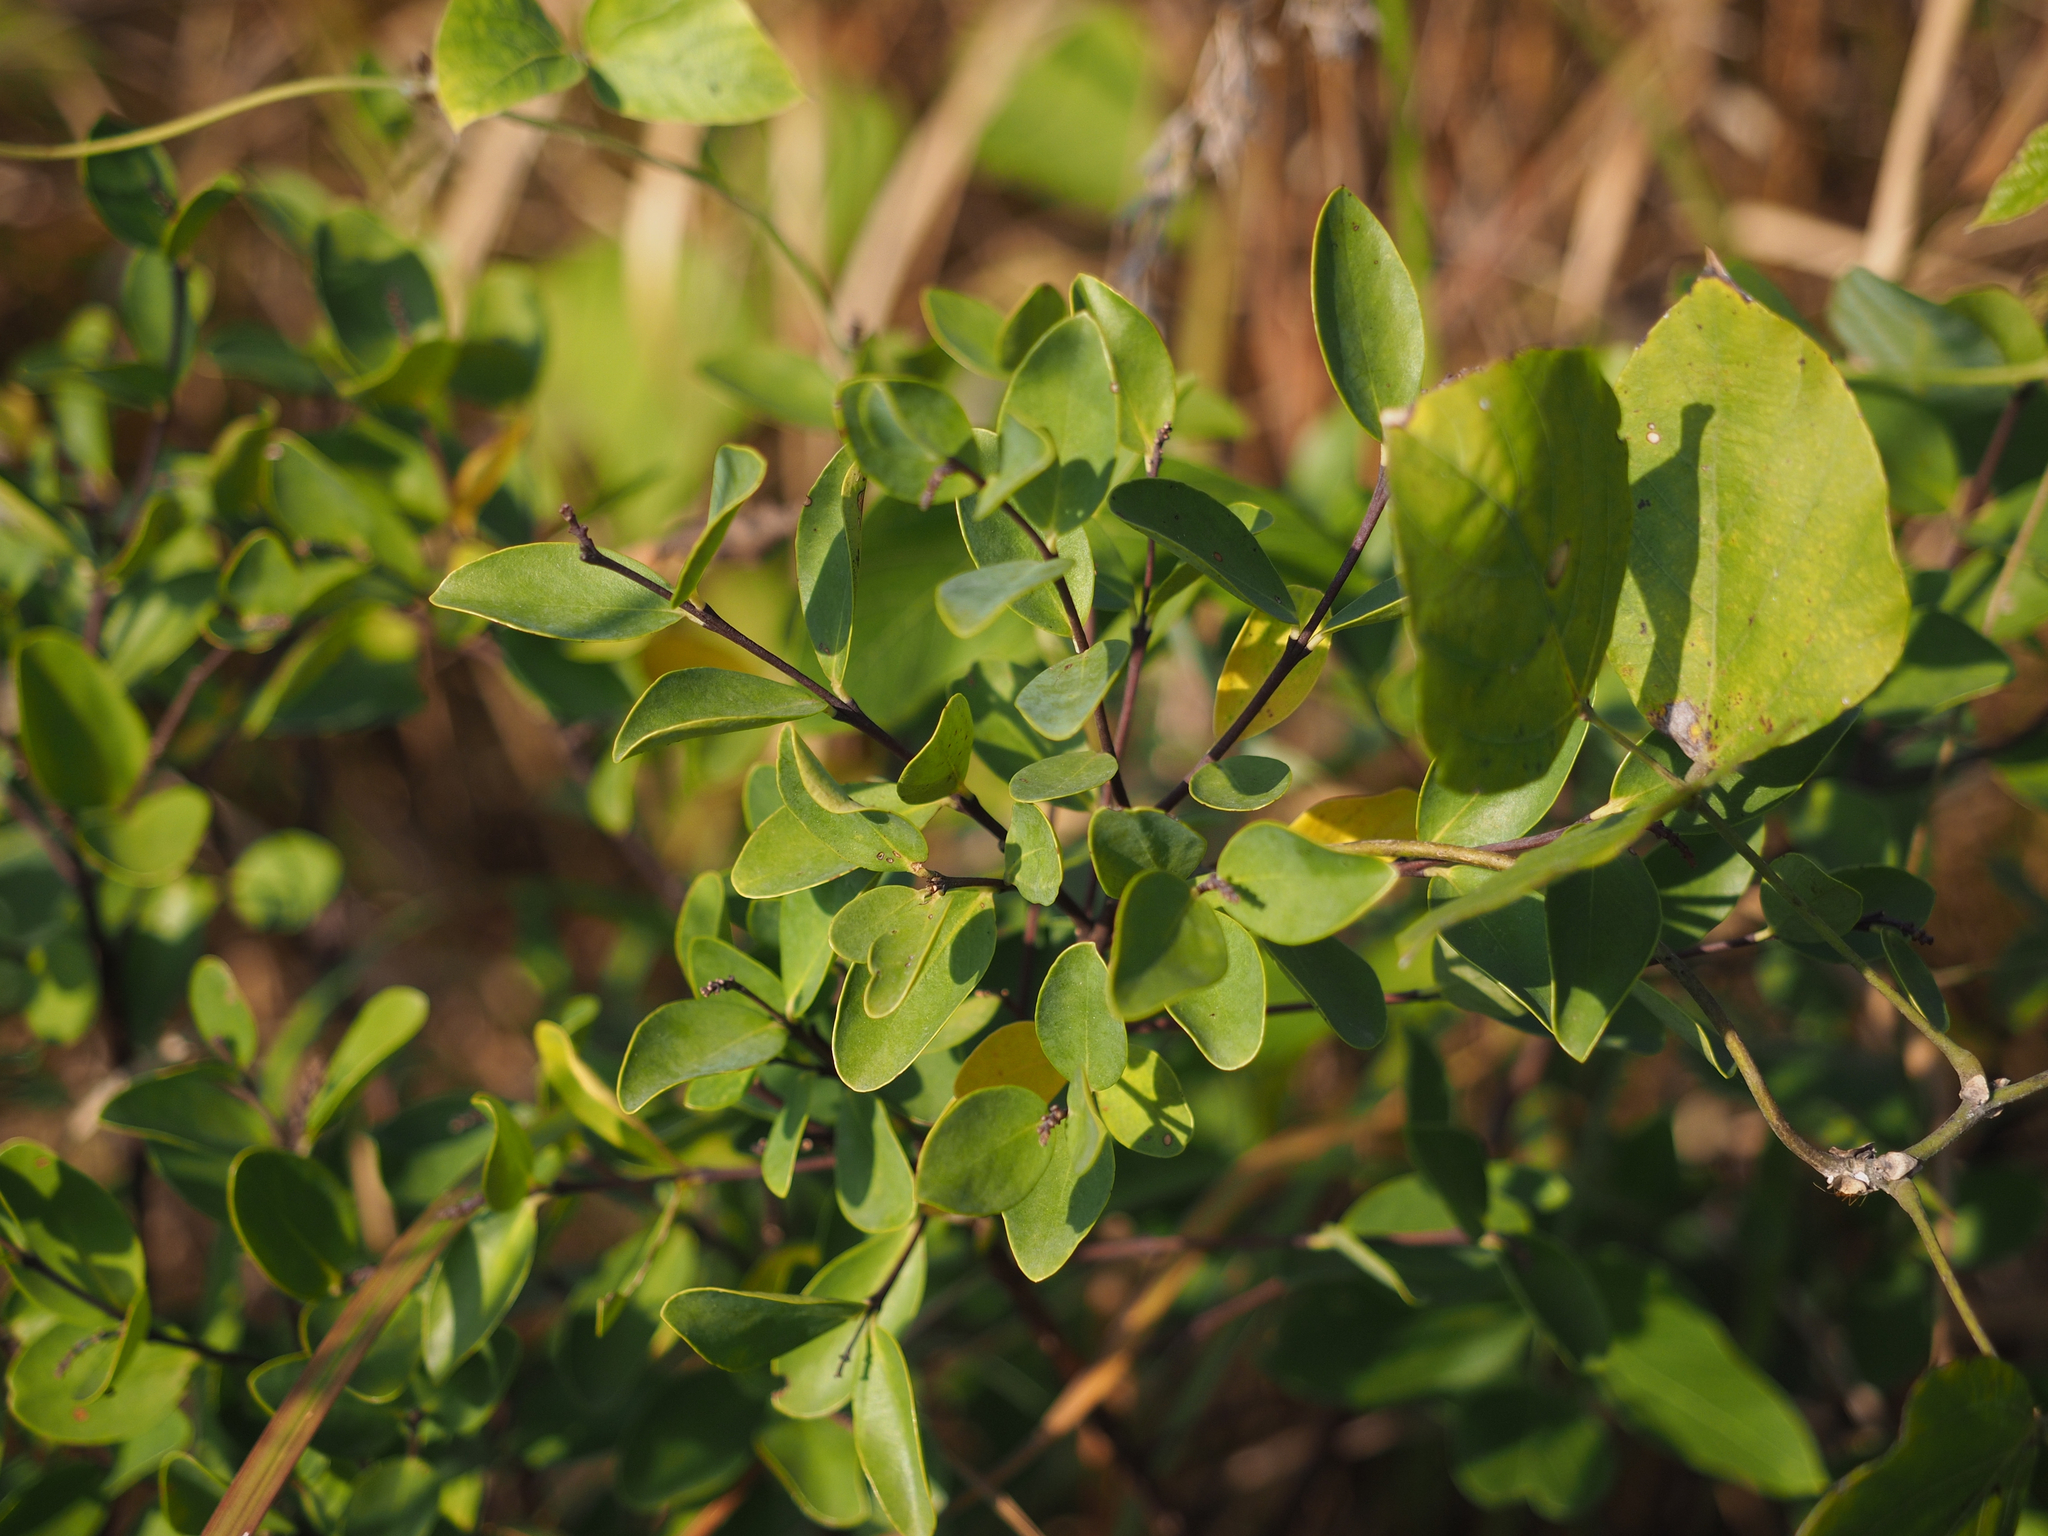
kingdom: Plantae
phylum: Tracheophyta
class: Magnoliopsida
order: Malvales
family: Thymelaeaceae
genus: Wikstroemia
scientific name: Wikstroemia indica
